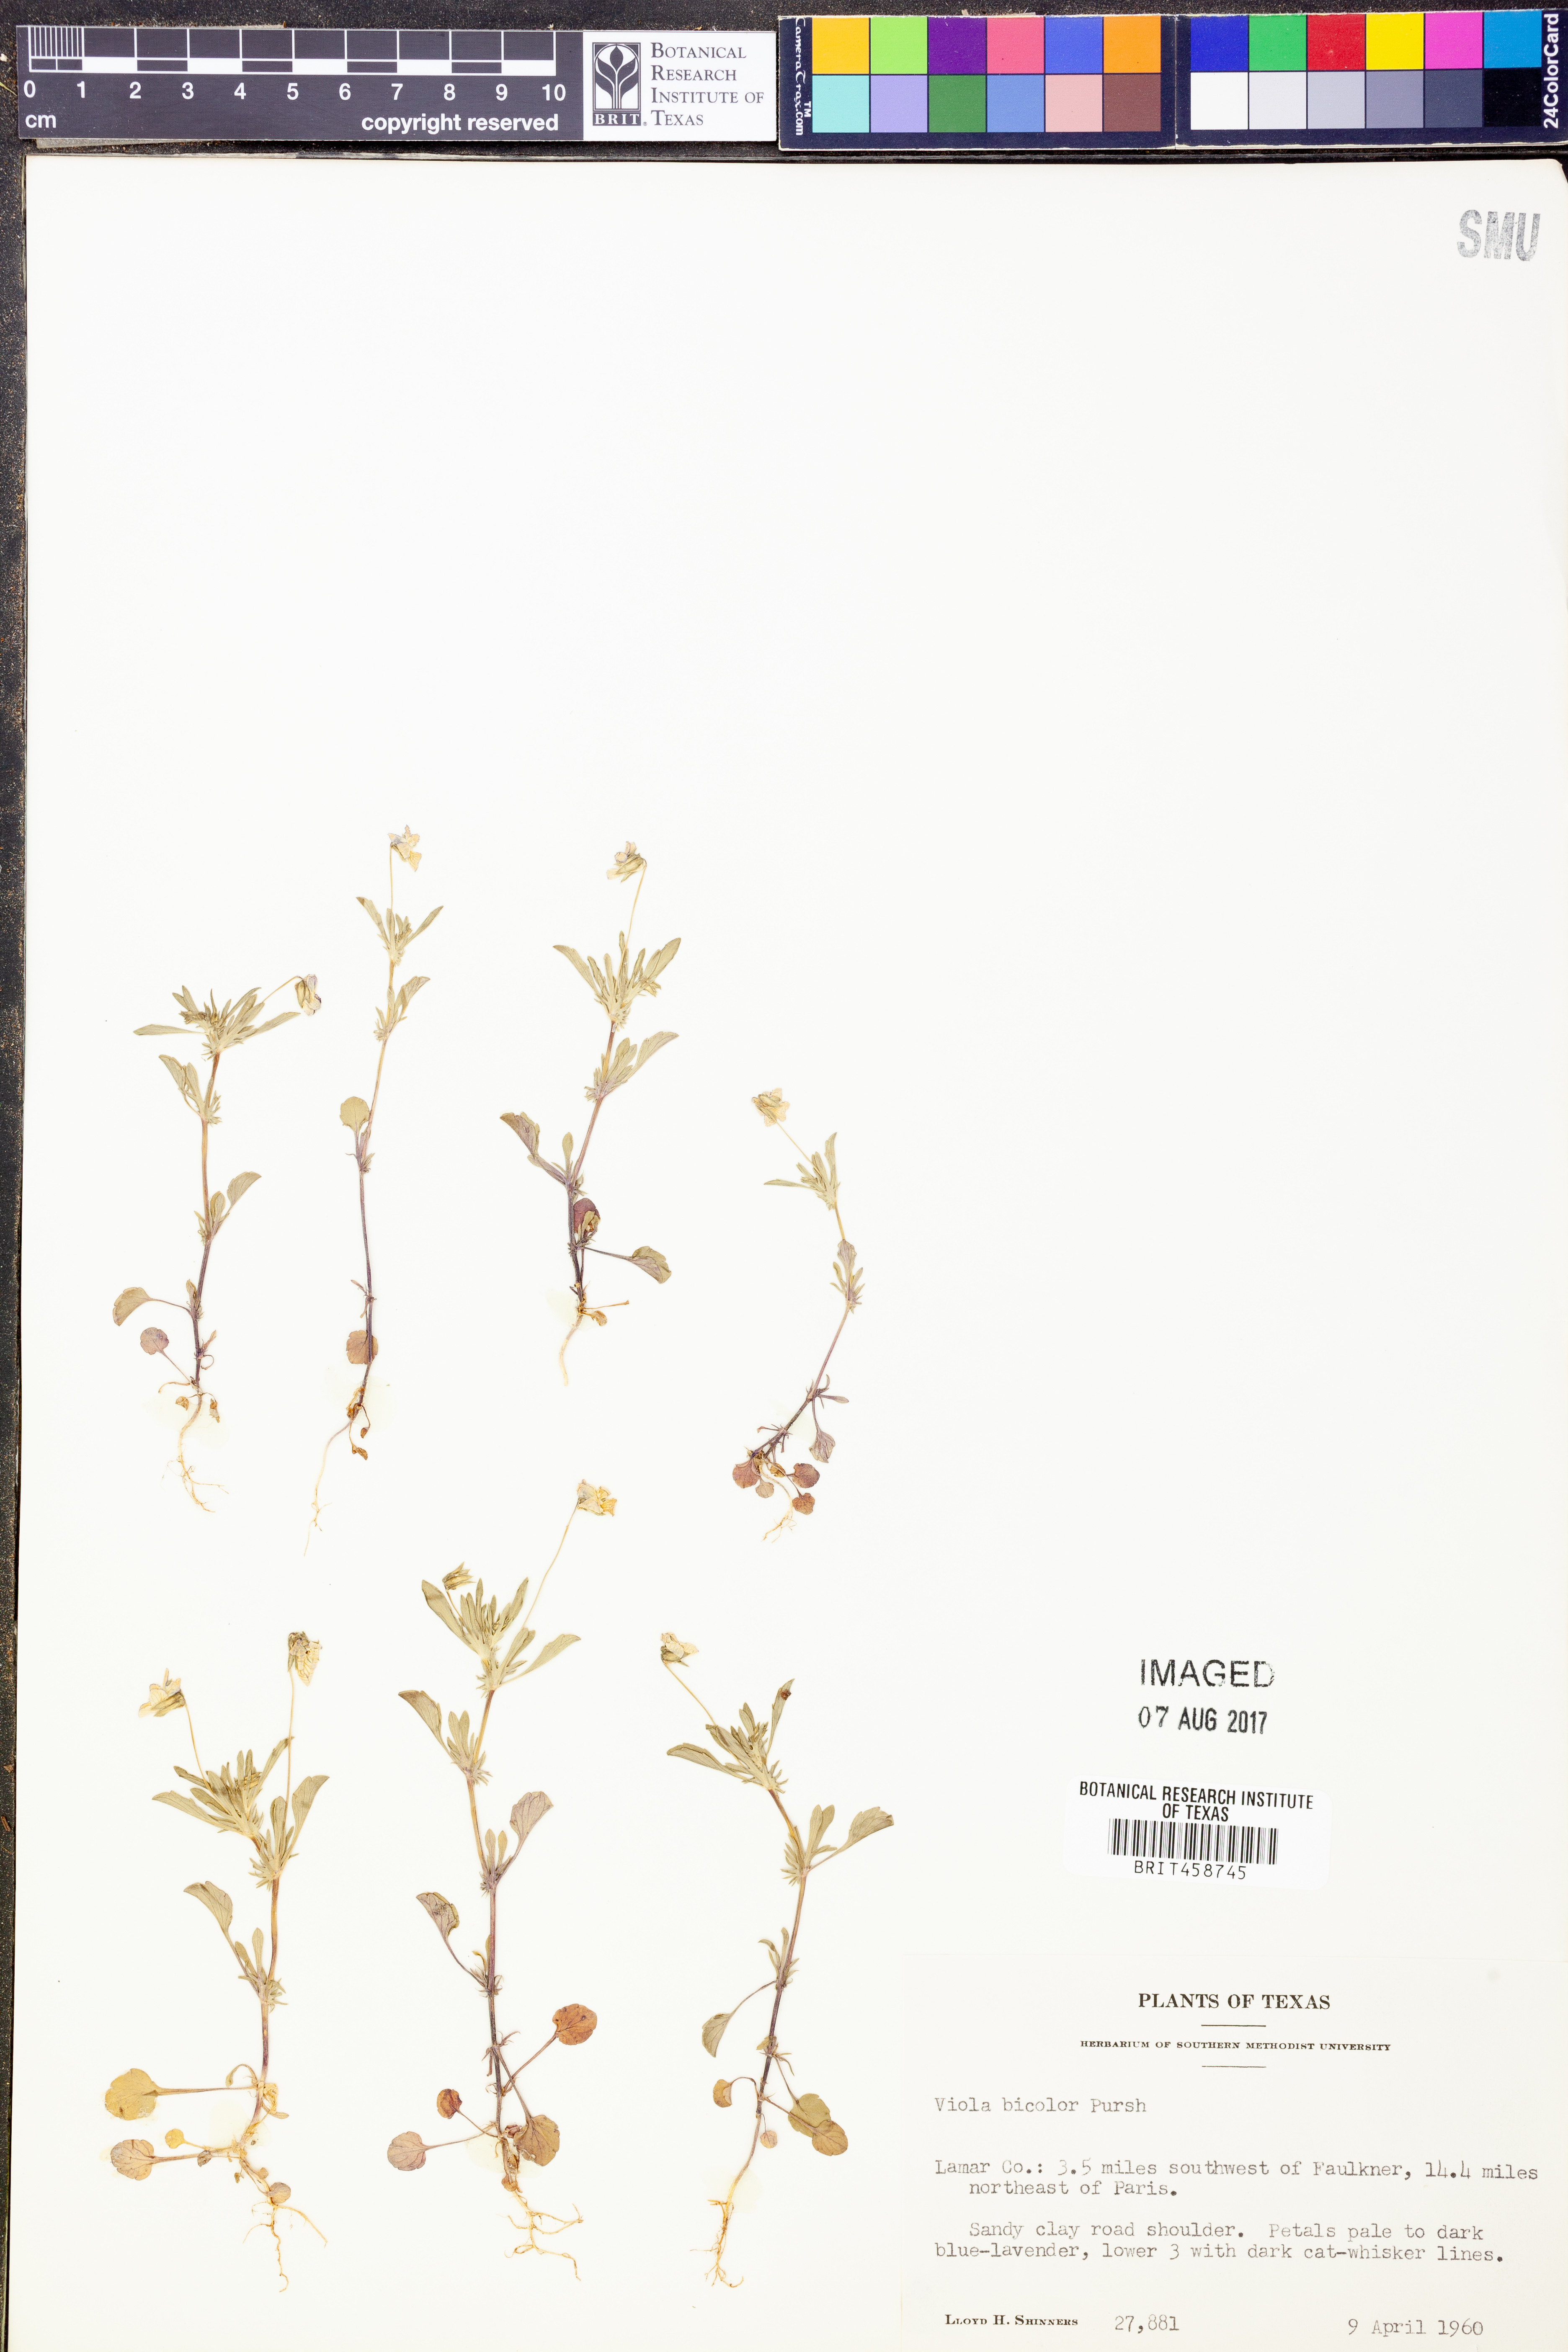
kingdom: Plantae
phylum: Tracheophyta
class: Magnoliopsida
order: Malpighiales
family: Violaceae
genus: Viola
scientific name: Viola rafinesquei
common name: American field pansy
